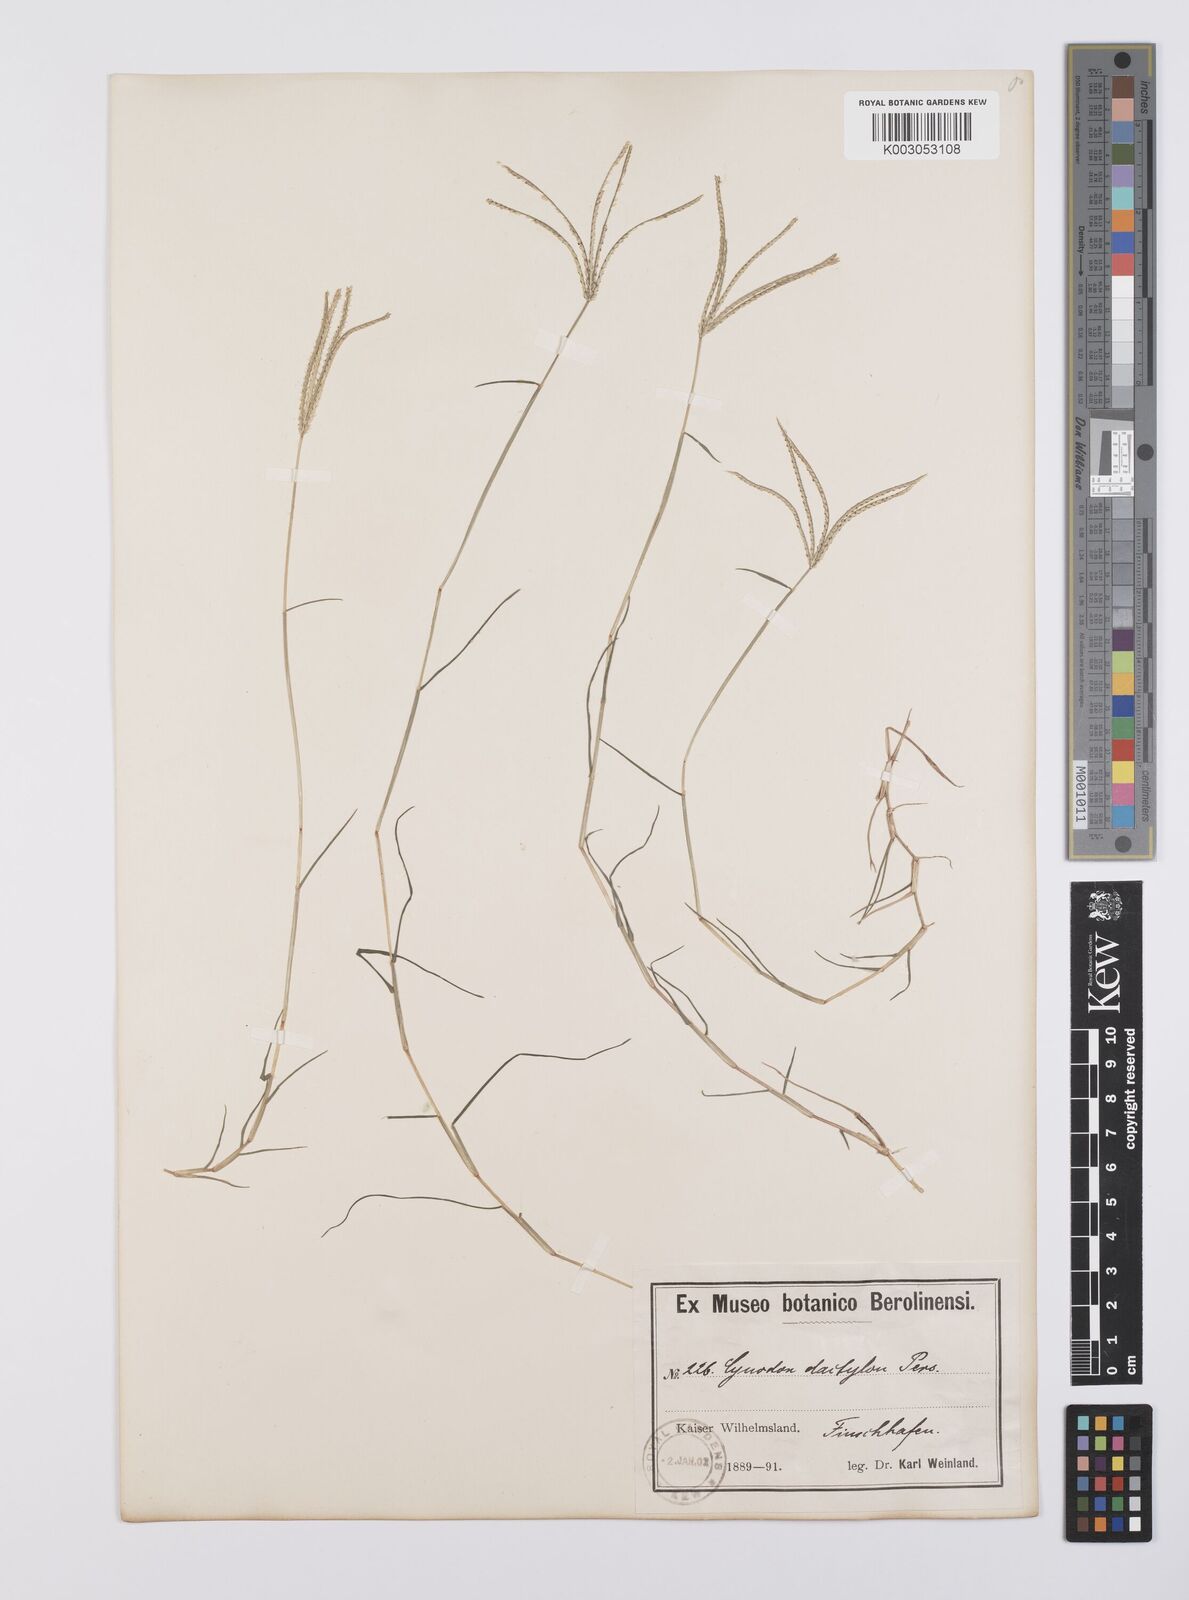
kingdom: Plantae
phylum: Tracheophyta
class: Liliopsida
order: Poales
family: Poaceae
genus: Cynodon
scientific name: Cynodon dactylon
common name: Bermuda grass
